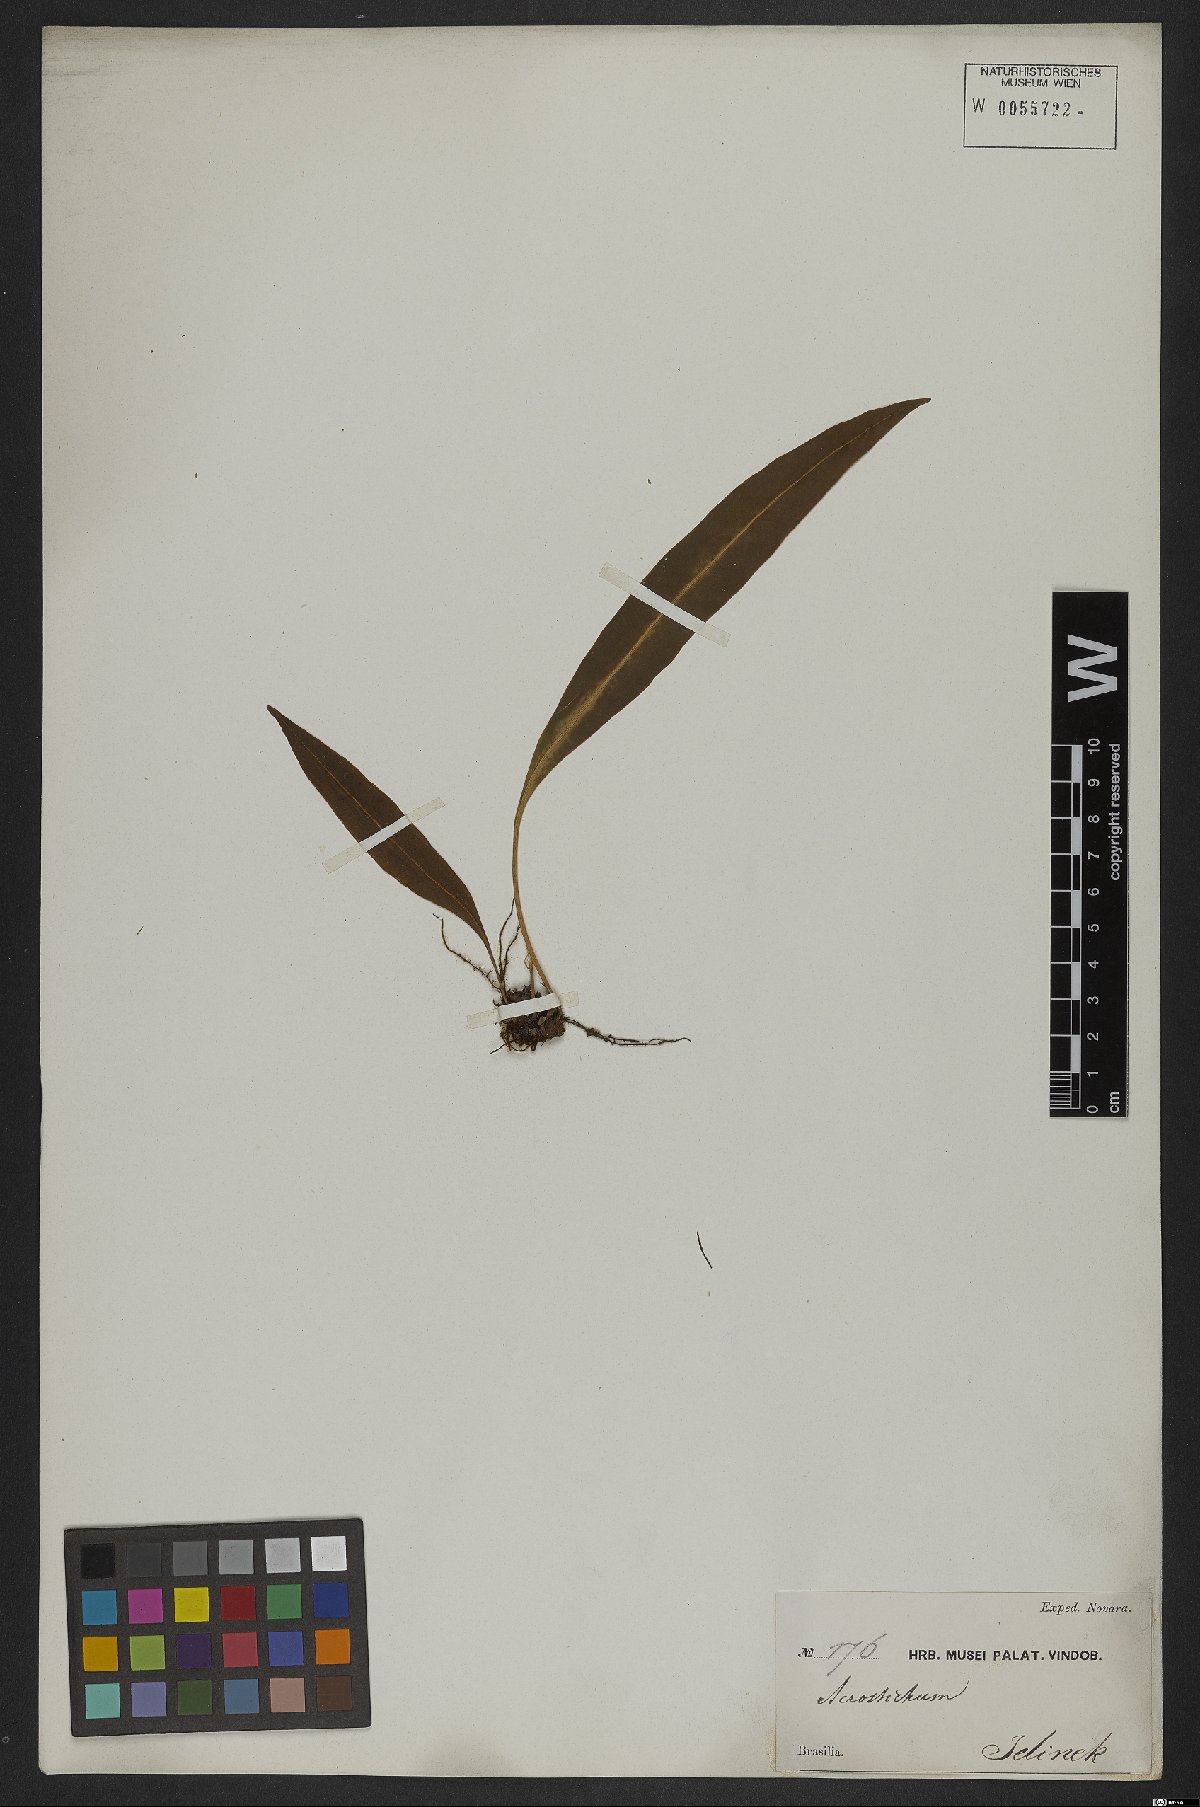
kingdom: Plantae
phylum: Tracheophyta
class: Polypodiopsida
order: Polypodiales
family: Dryopteridaceae
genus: Elaphoglossum
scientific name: Elaphoglossum
